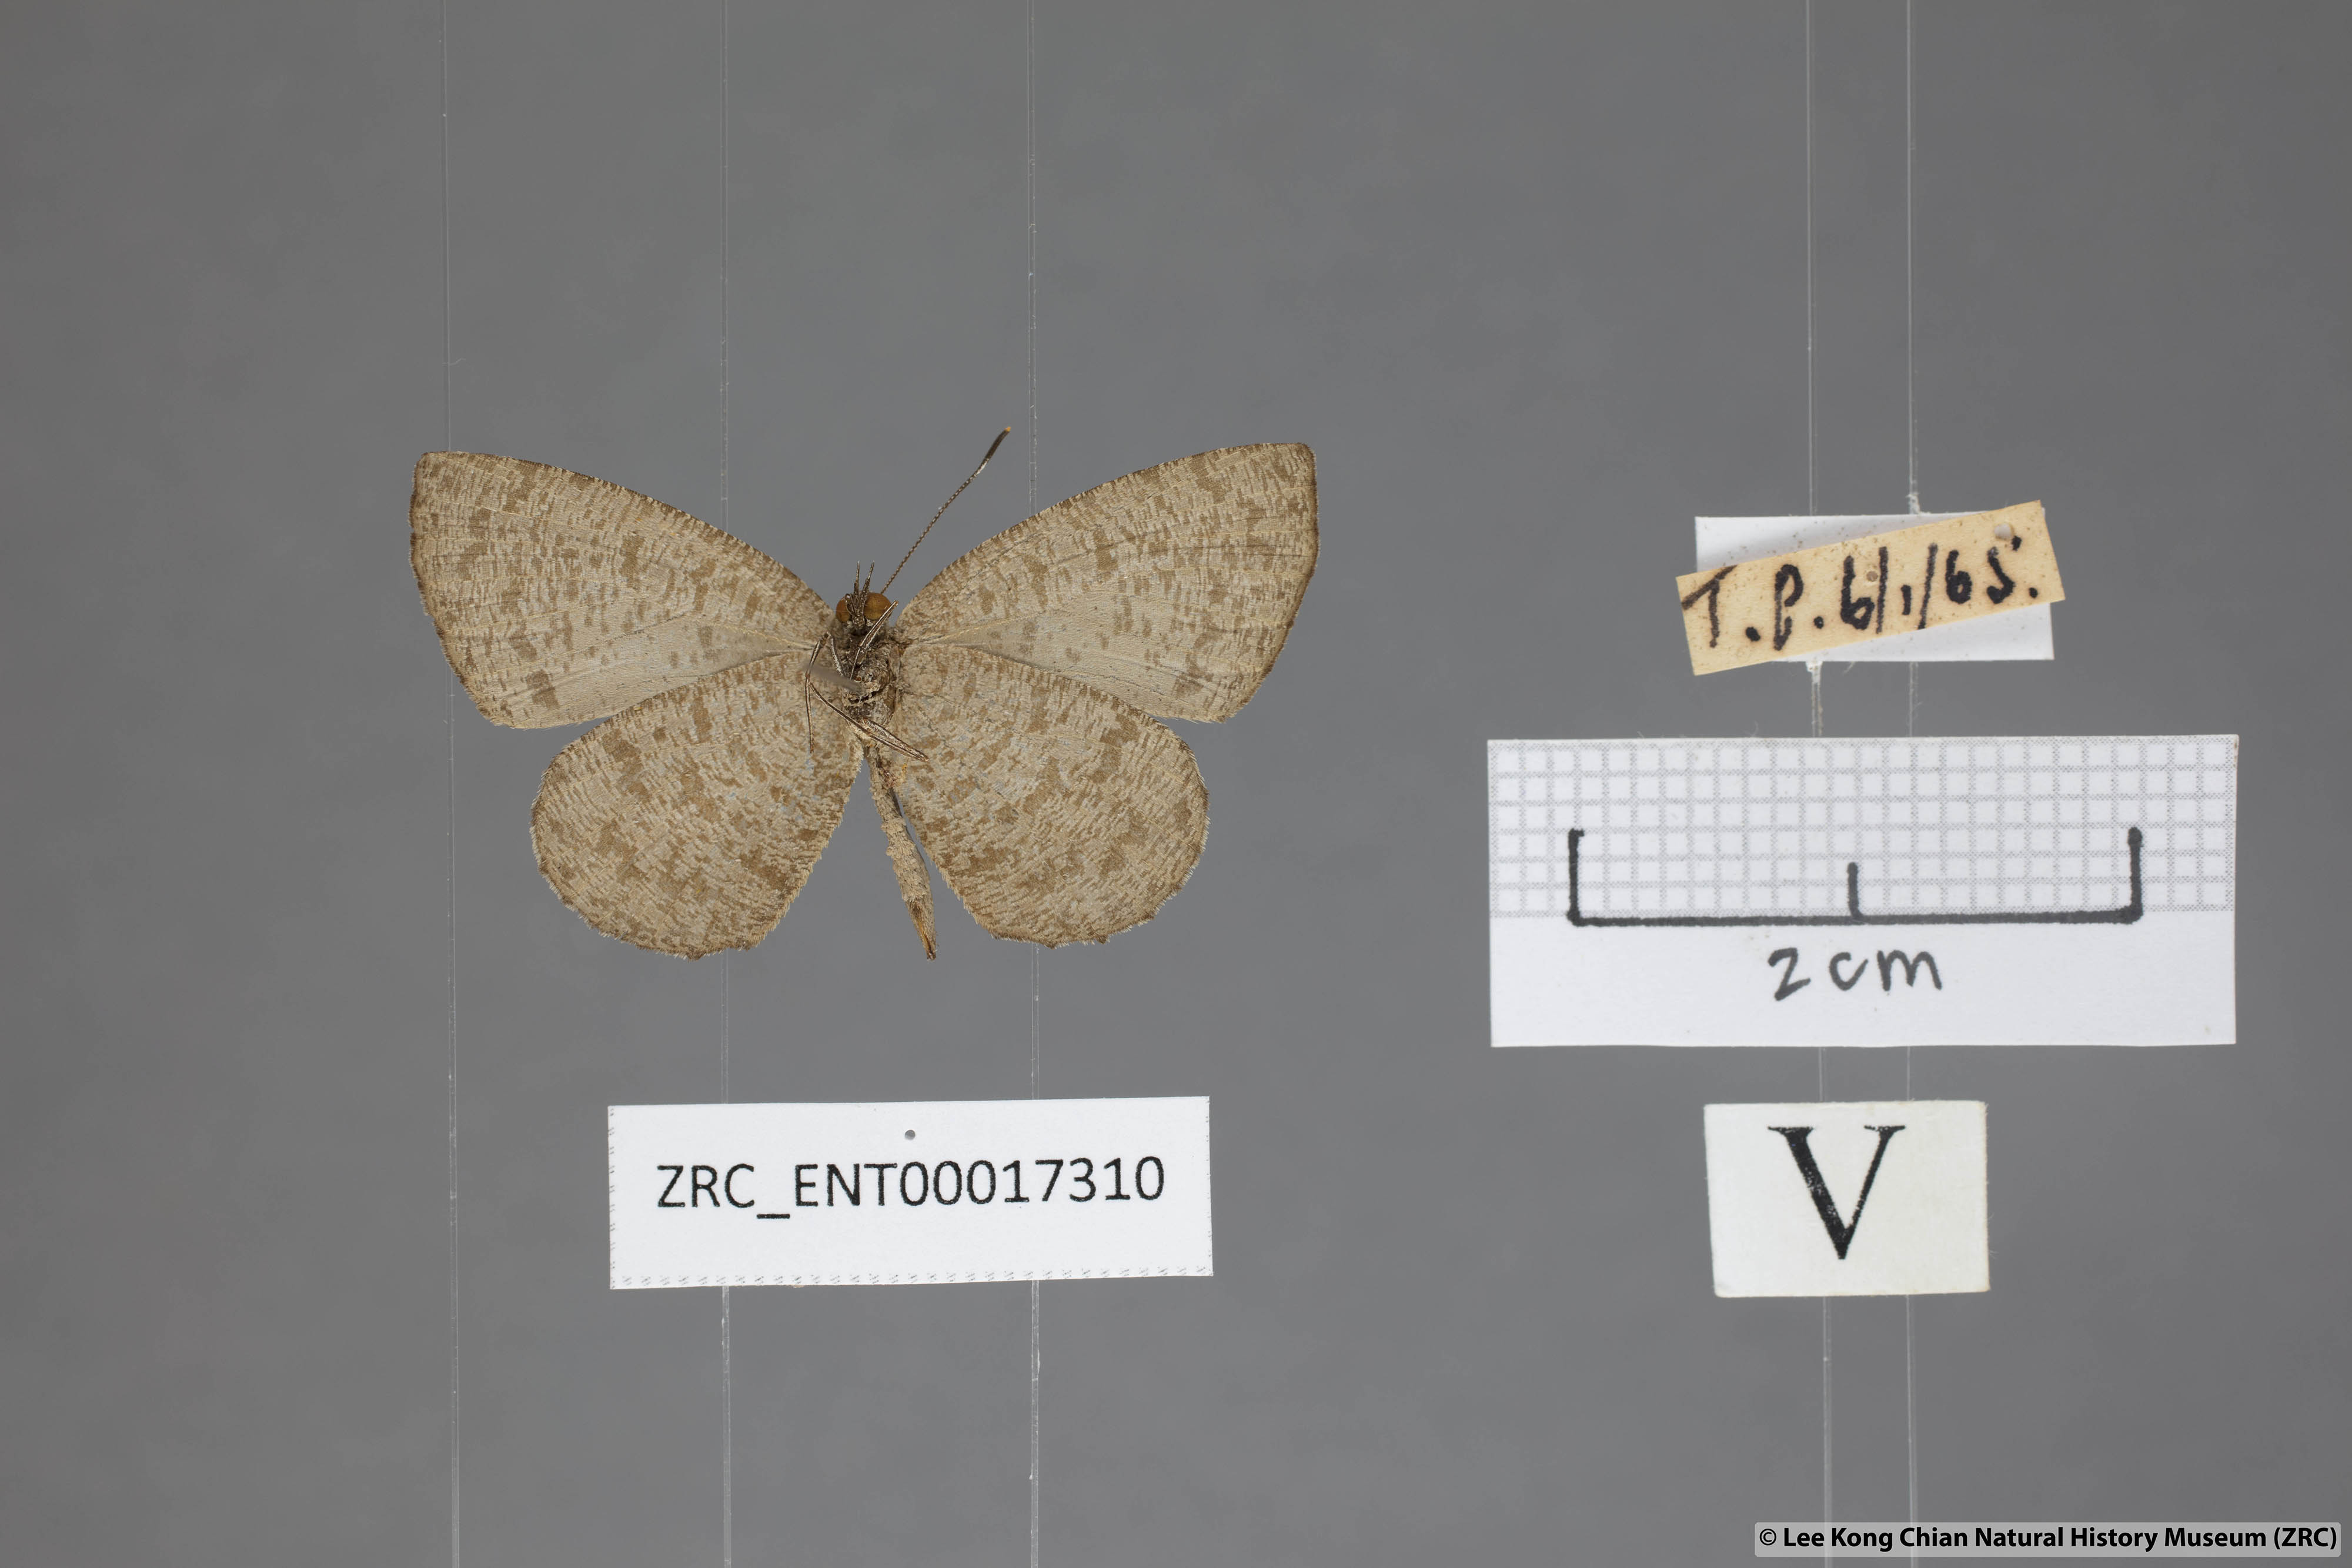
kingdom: Animalia
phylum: Arthropoda
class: Insecta
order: Lepidoptera
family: Lycaenidae
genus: Allotinus
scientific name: Allotinus subviolaceus
